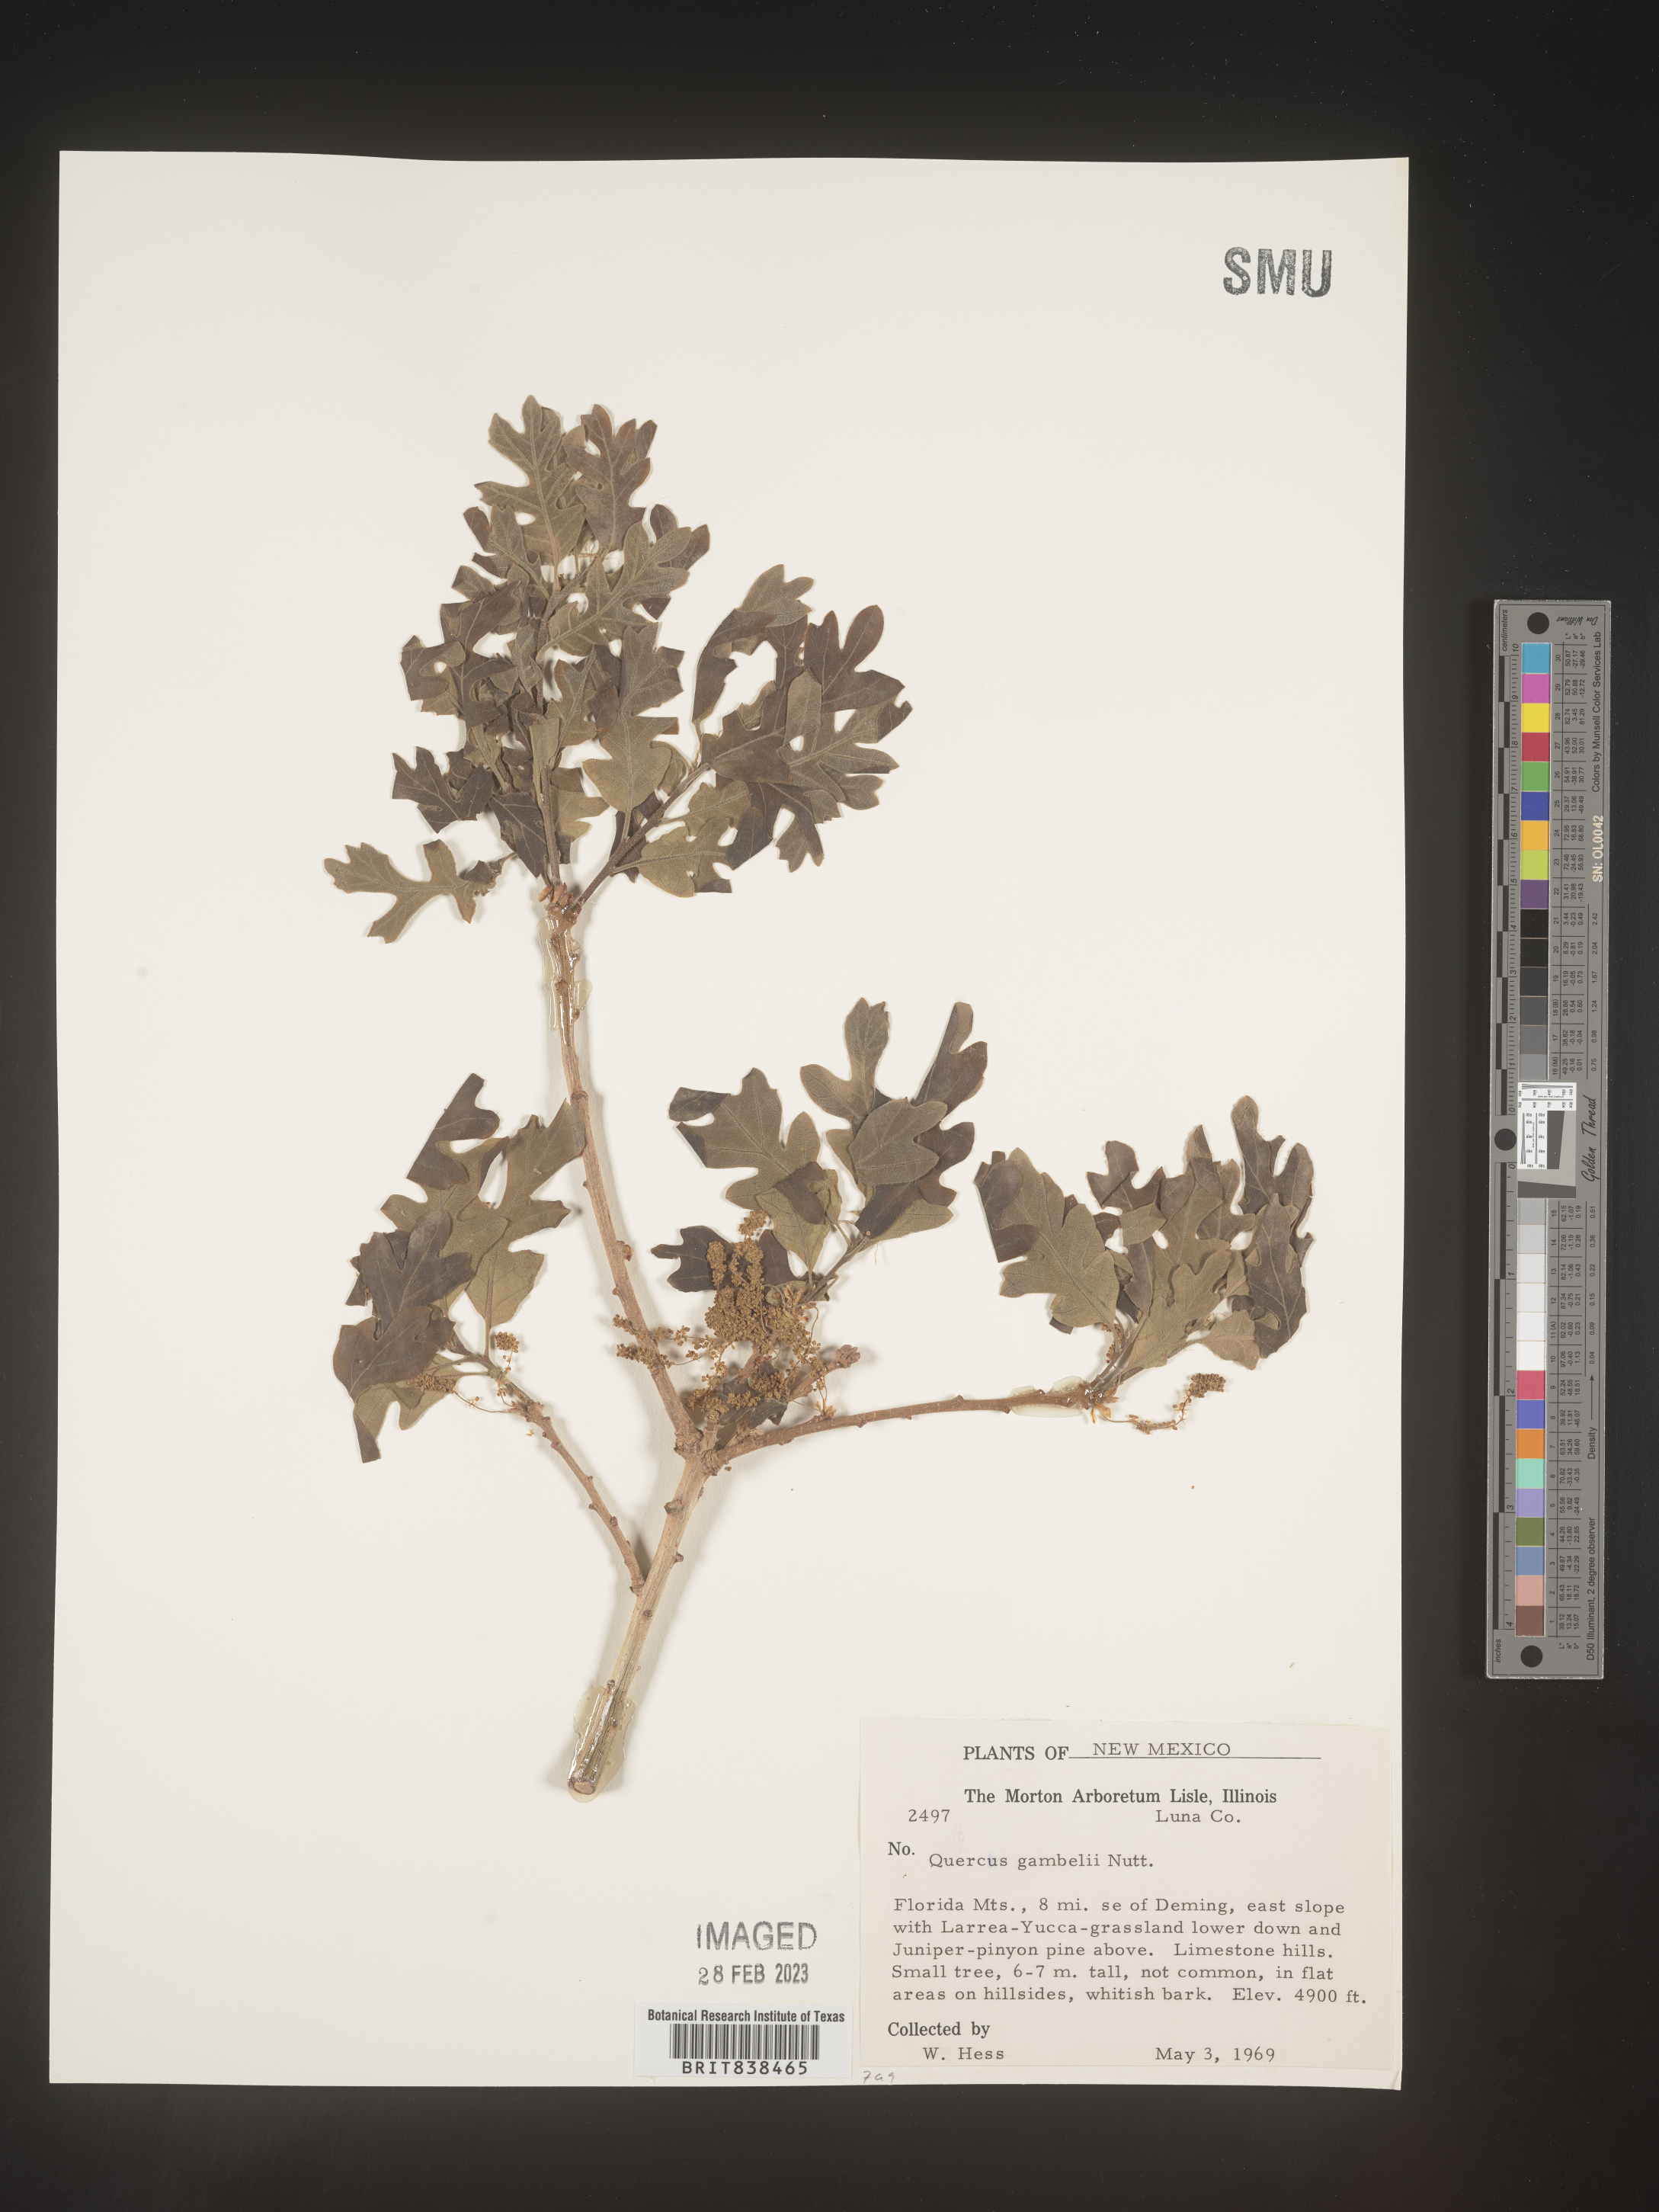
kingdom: Plantae
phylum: Tracheophyta
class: Magnoliopsida
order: Fagales
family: Fagaceae
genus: Quercus
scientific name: Quercus gambelii
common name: Gambel oak
